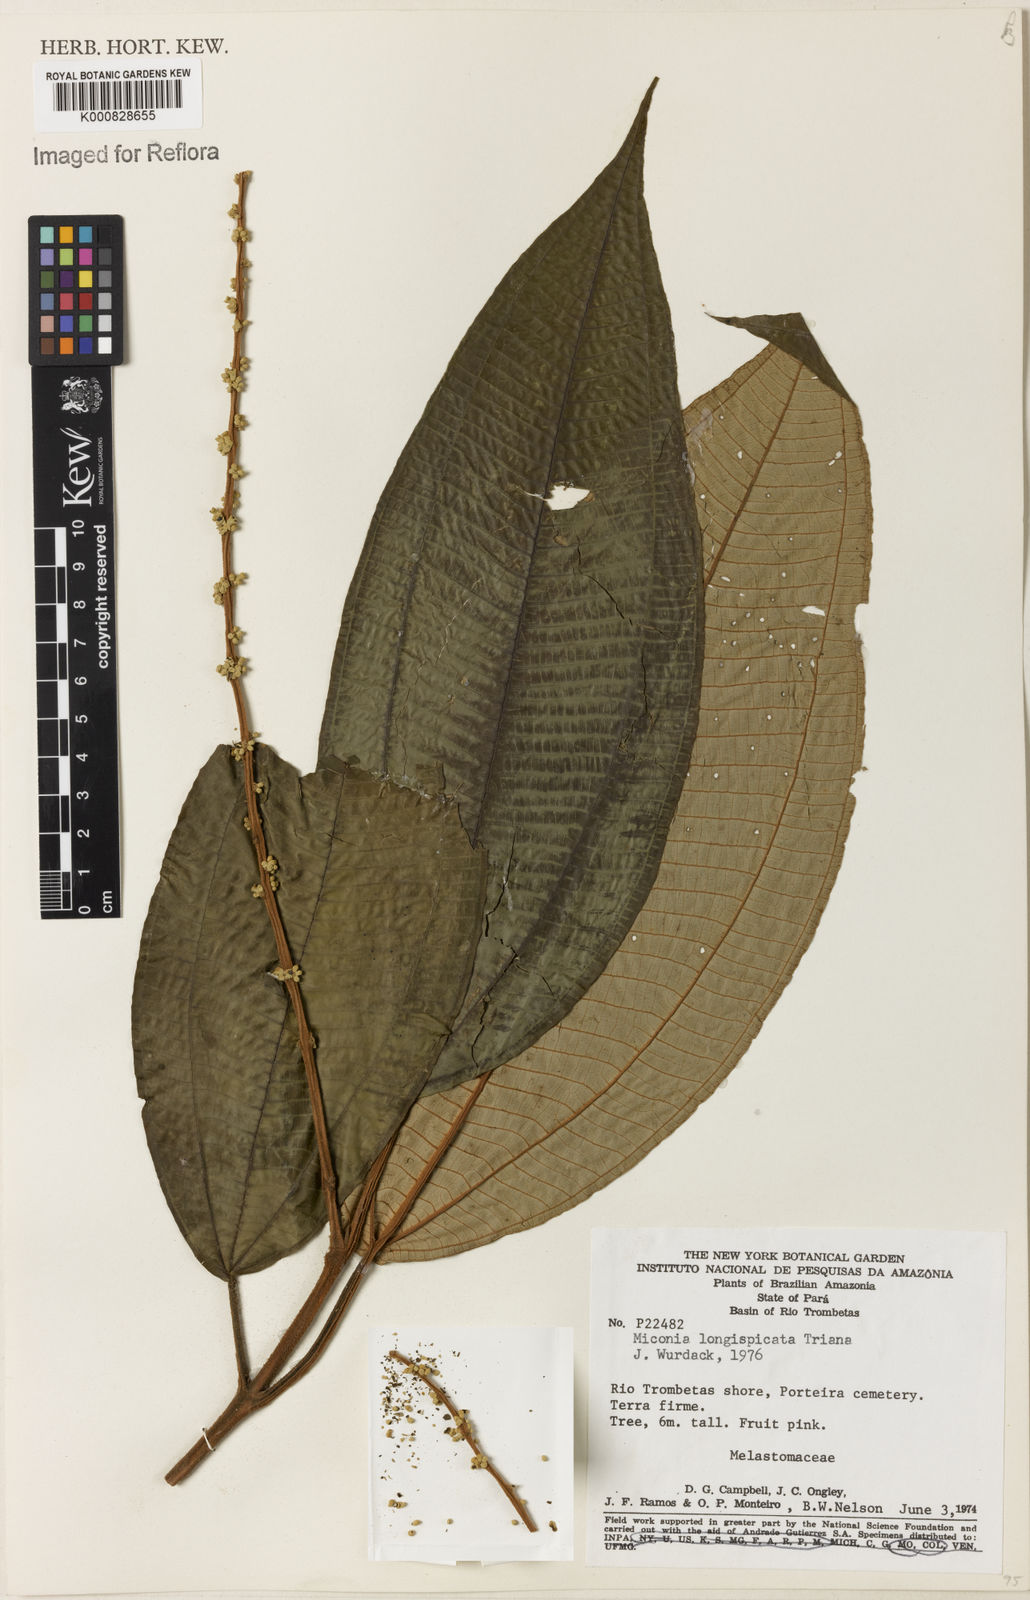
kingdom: Plantae
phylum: Tracheophyta
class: Magnoliopsida
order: Myrtales
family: Melastomataceae
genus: Miconia
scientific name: Miconia longispicata
